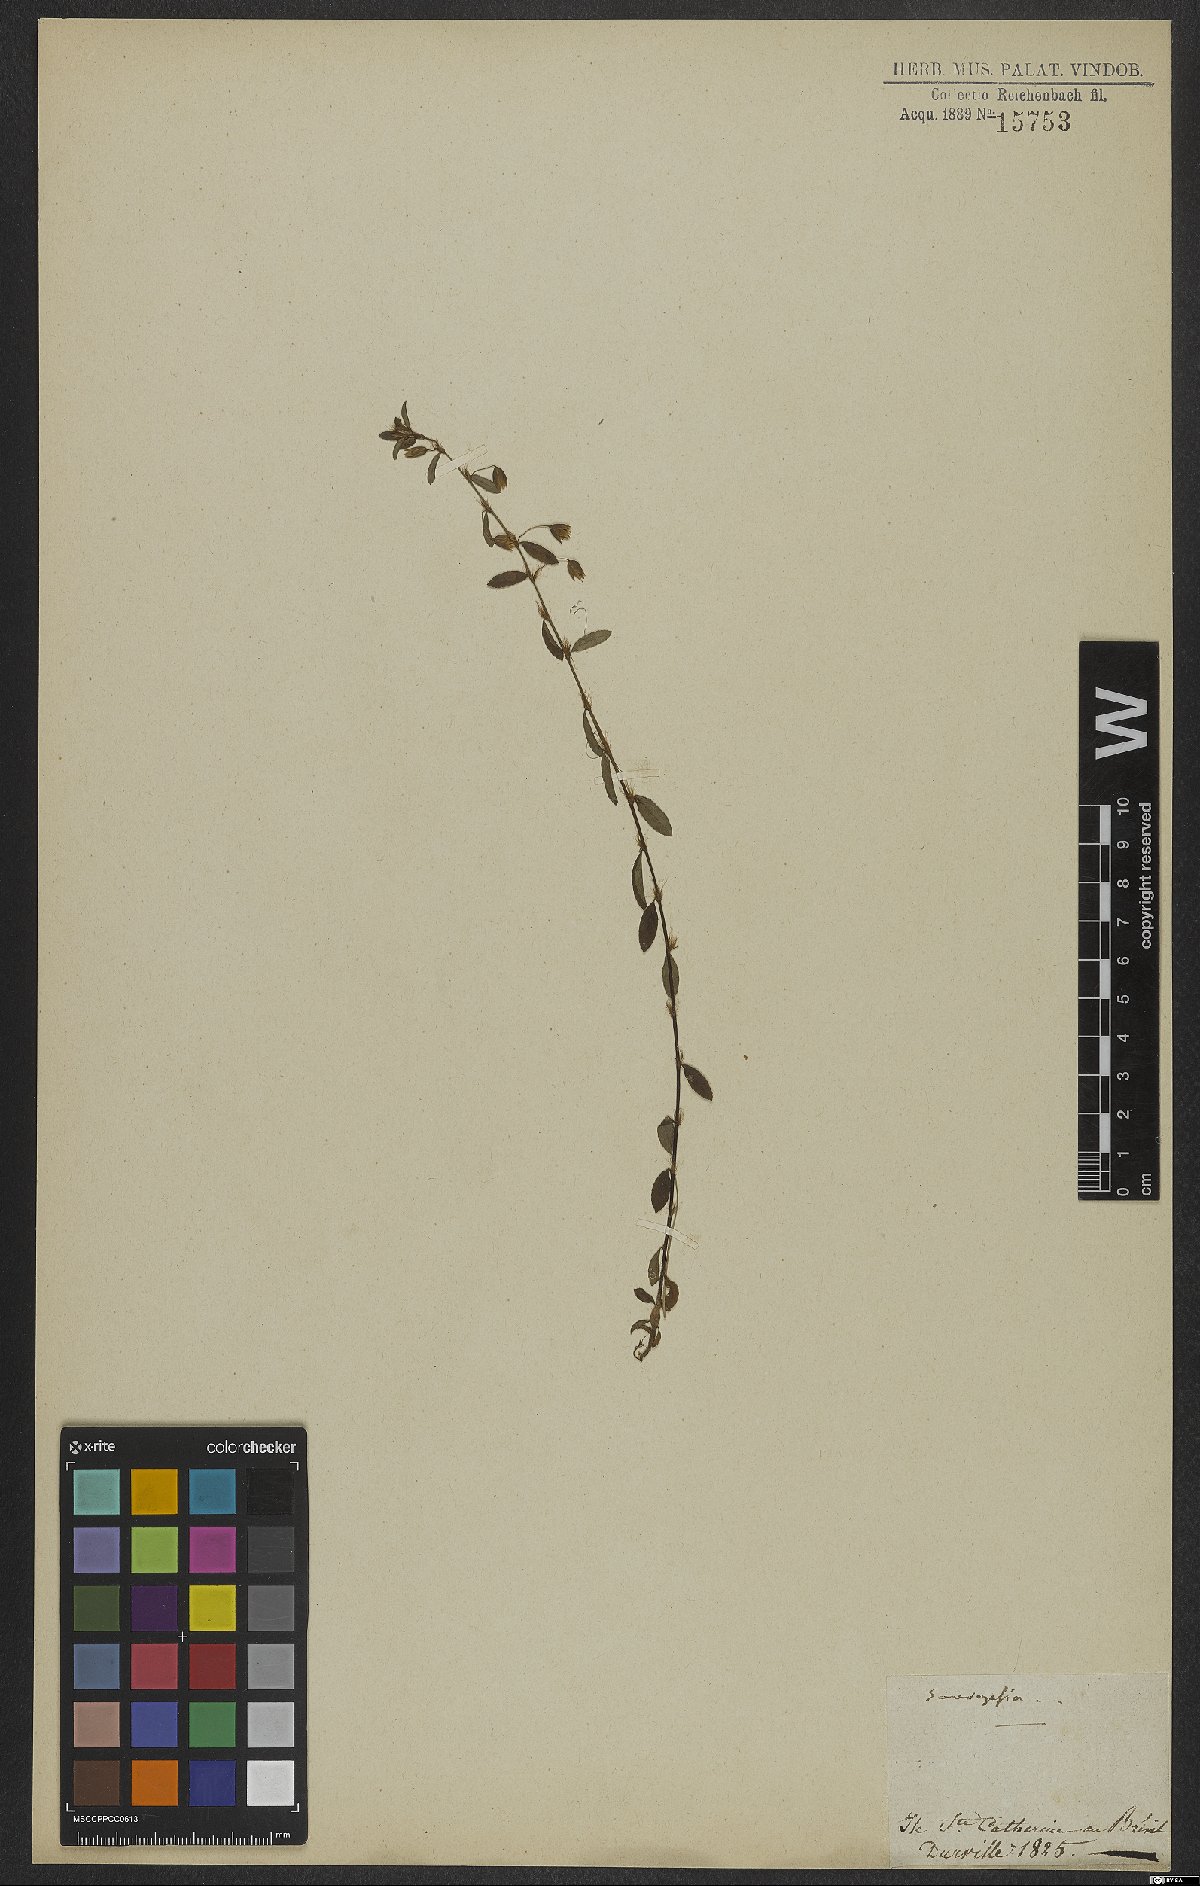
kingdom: Plantae
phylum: Tracheophyta
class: Magnoliopsida
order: Malpighiales
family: Ochnaceae
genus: Sauvagesia
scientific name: Sauvagesia
